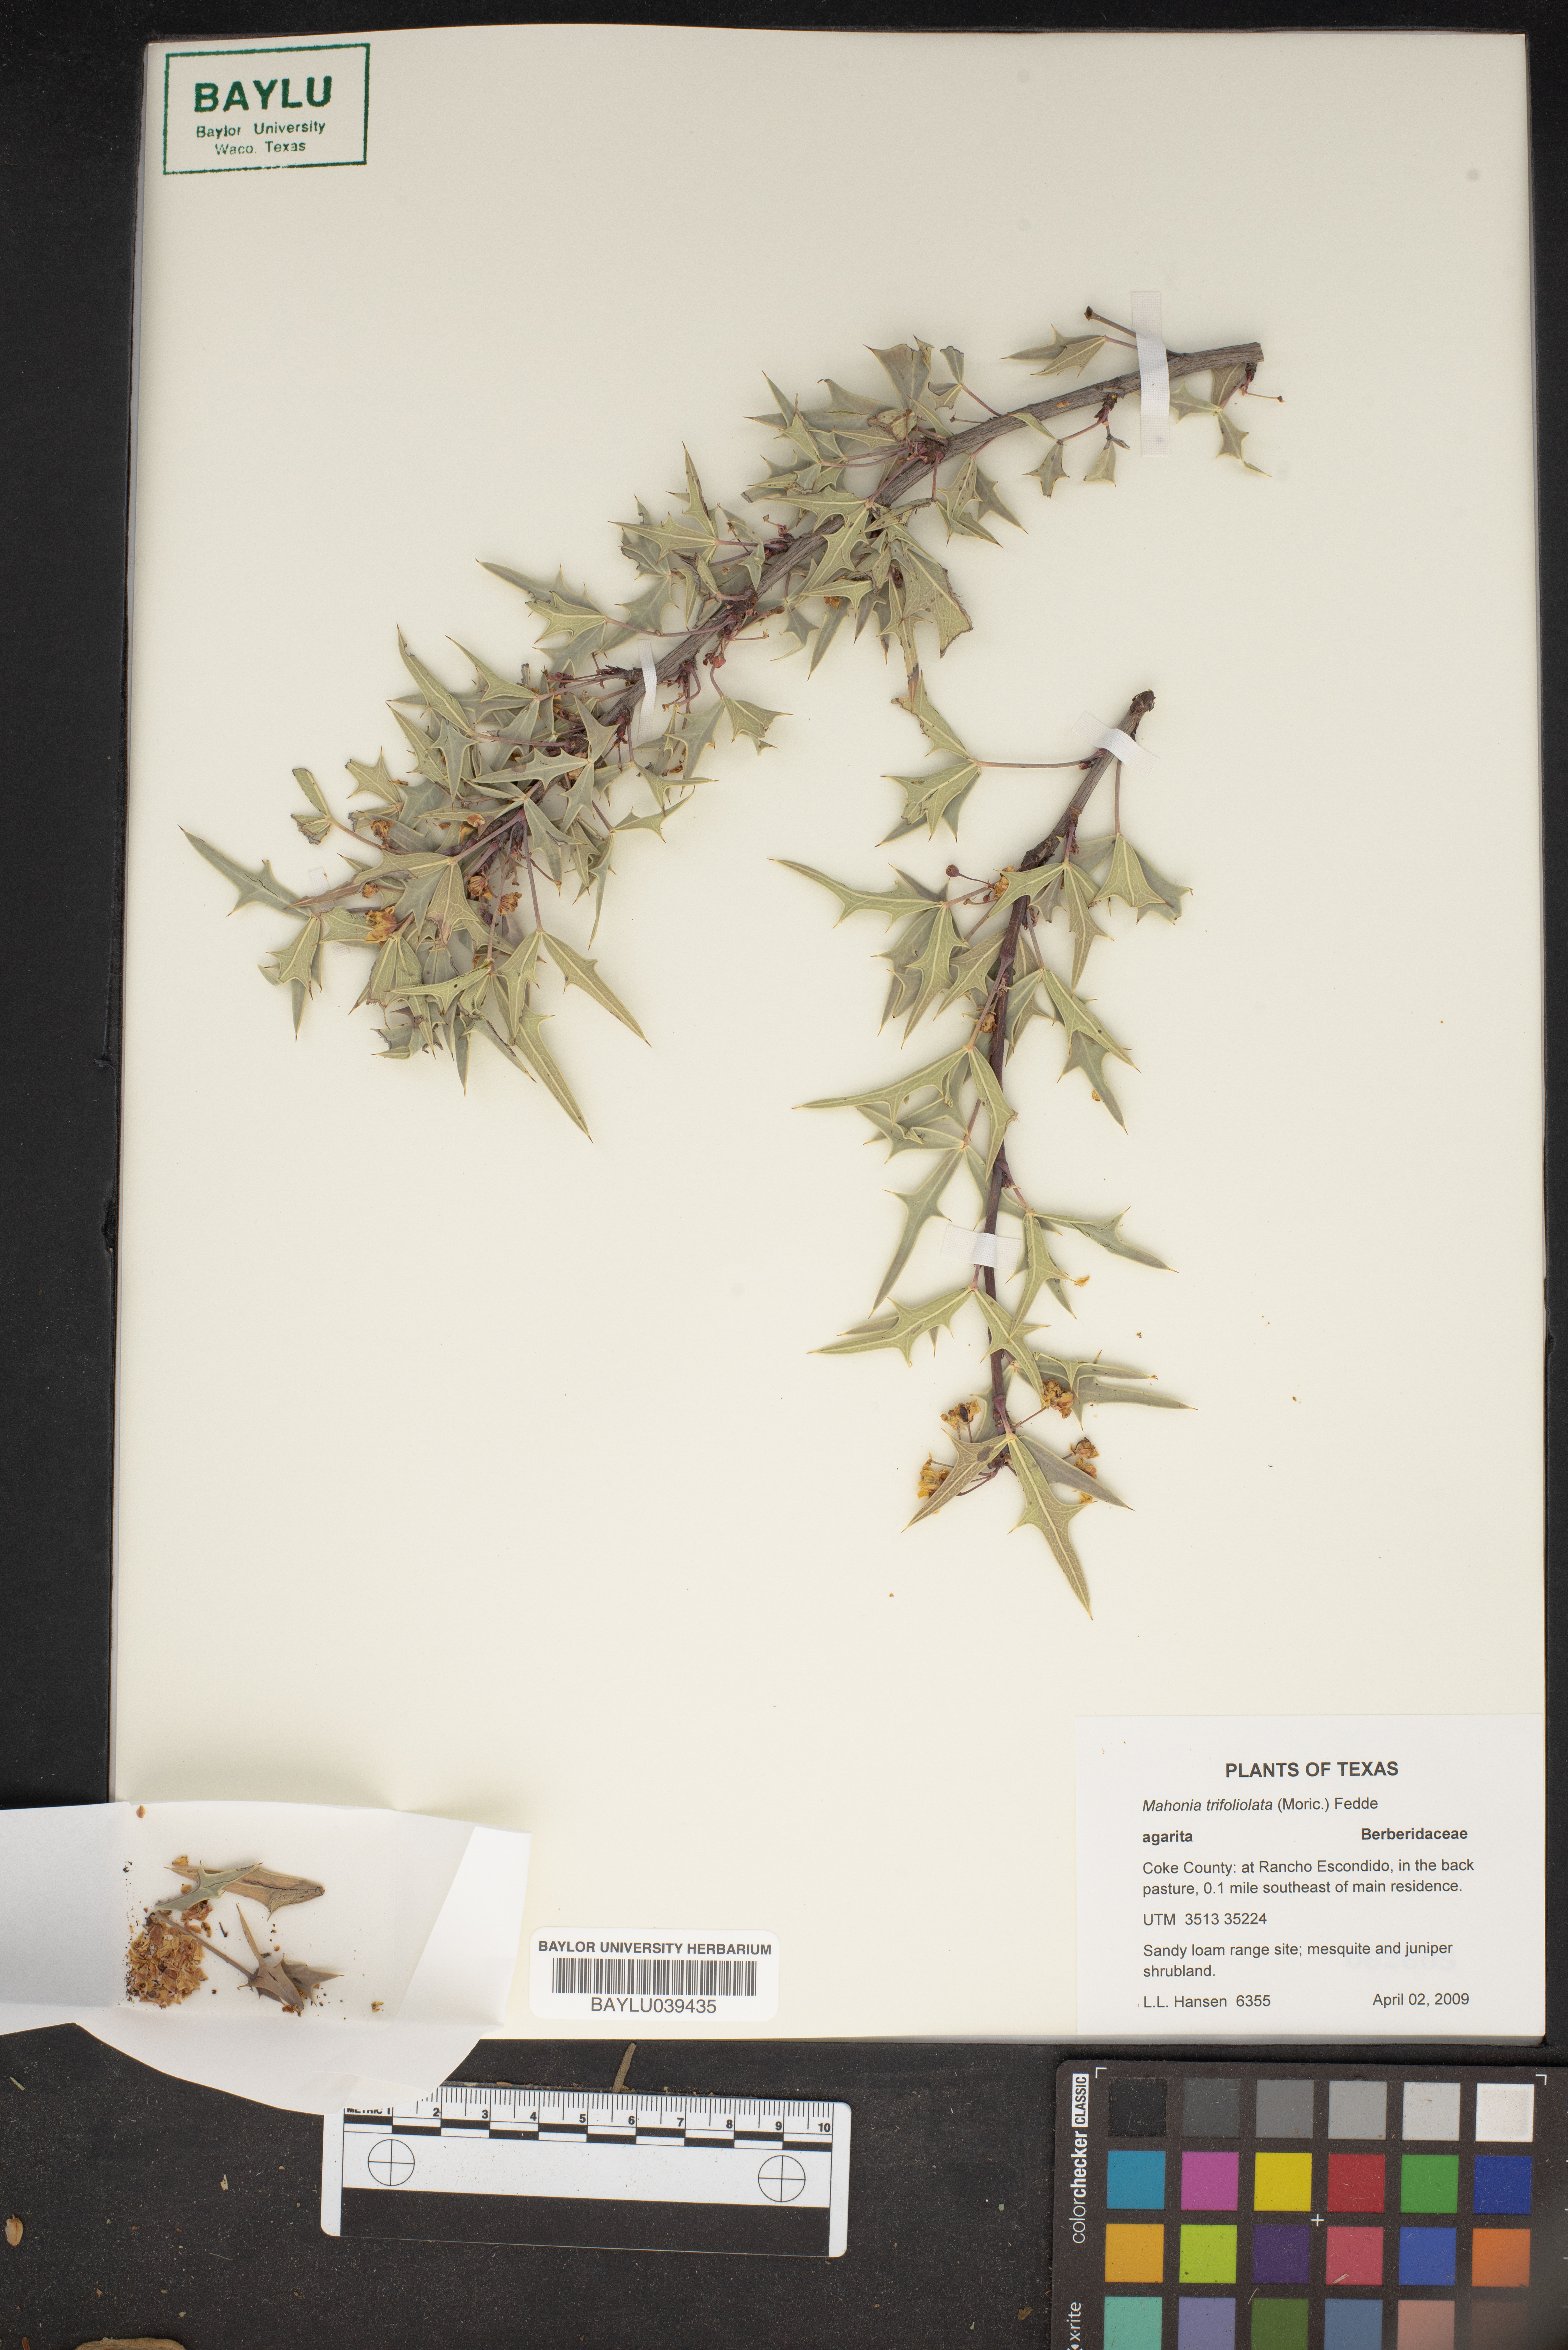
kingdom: Plantae
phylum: Tracheophyta
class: Magnoliopsida
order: Ranunculales
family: Berberidaceae
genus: Mahonia
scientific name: Mahonia trifolia
